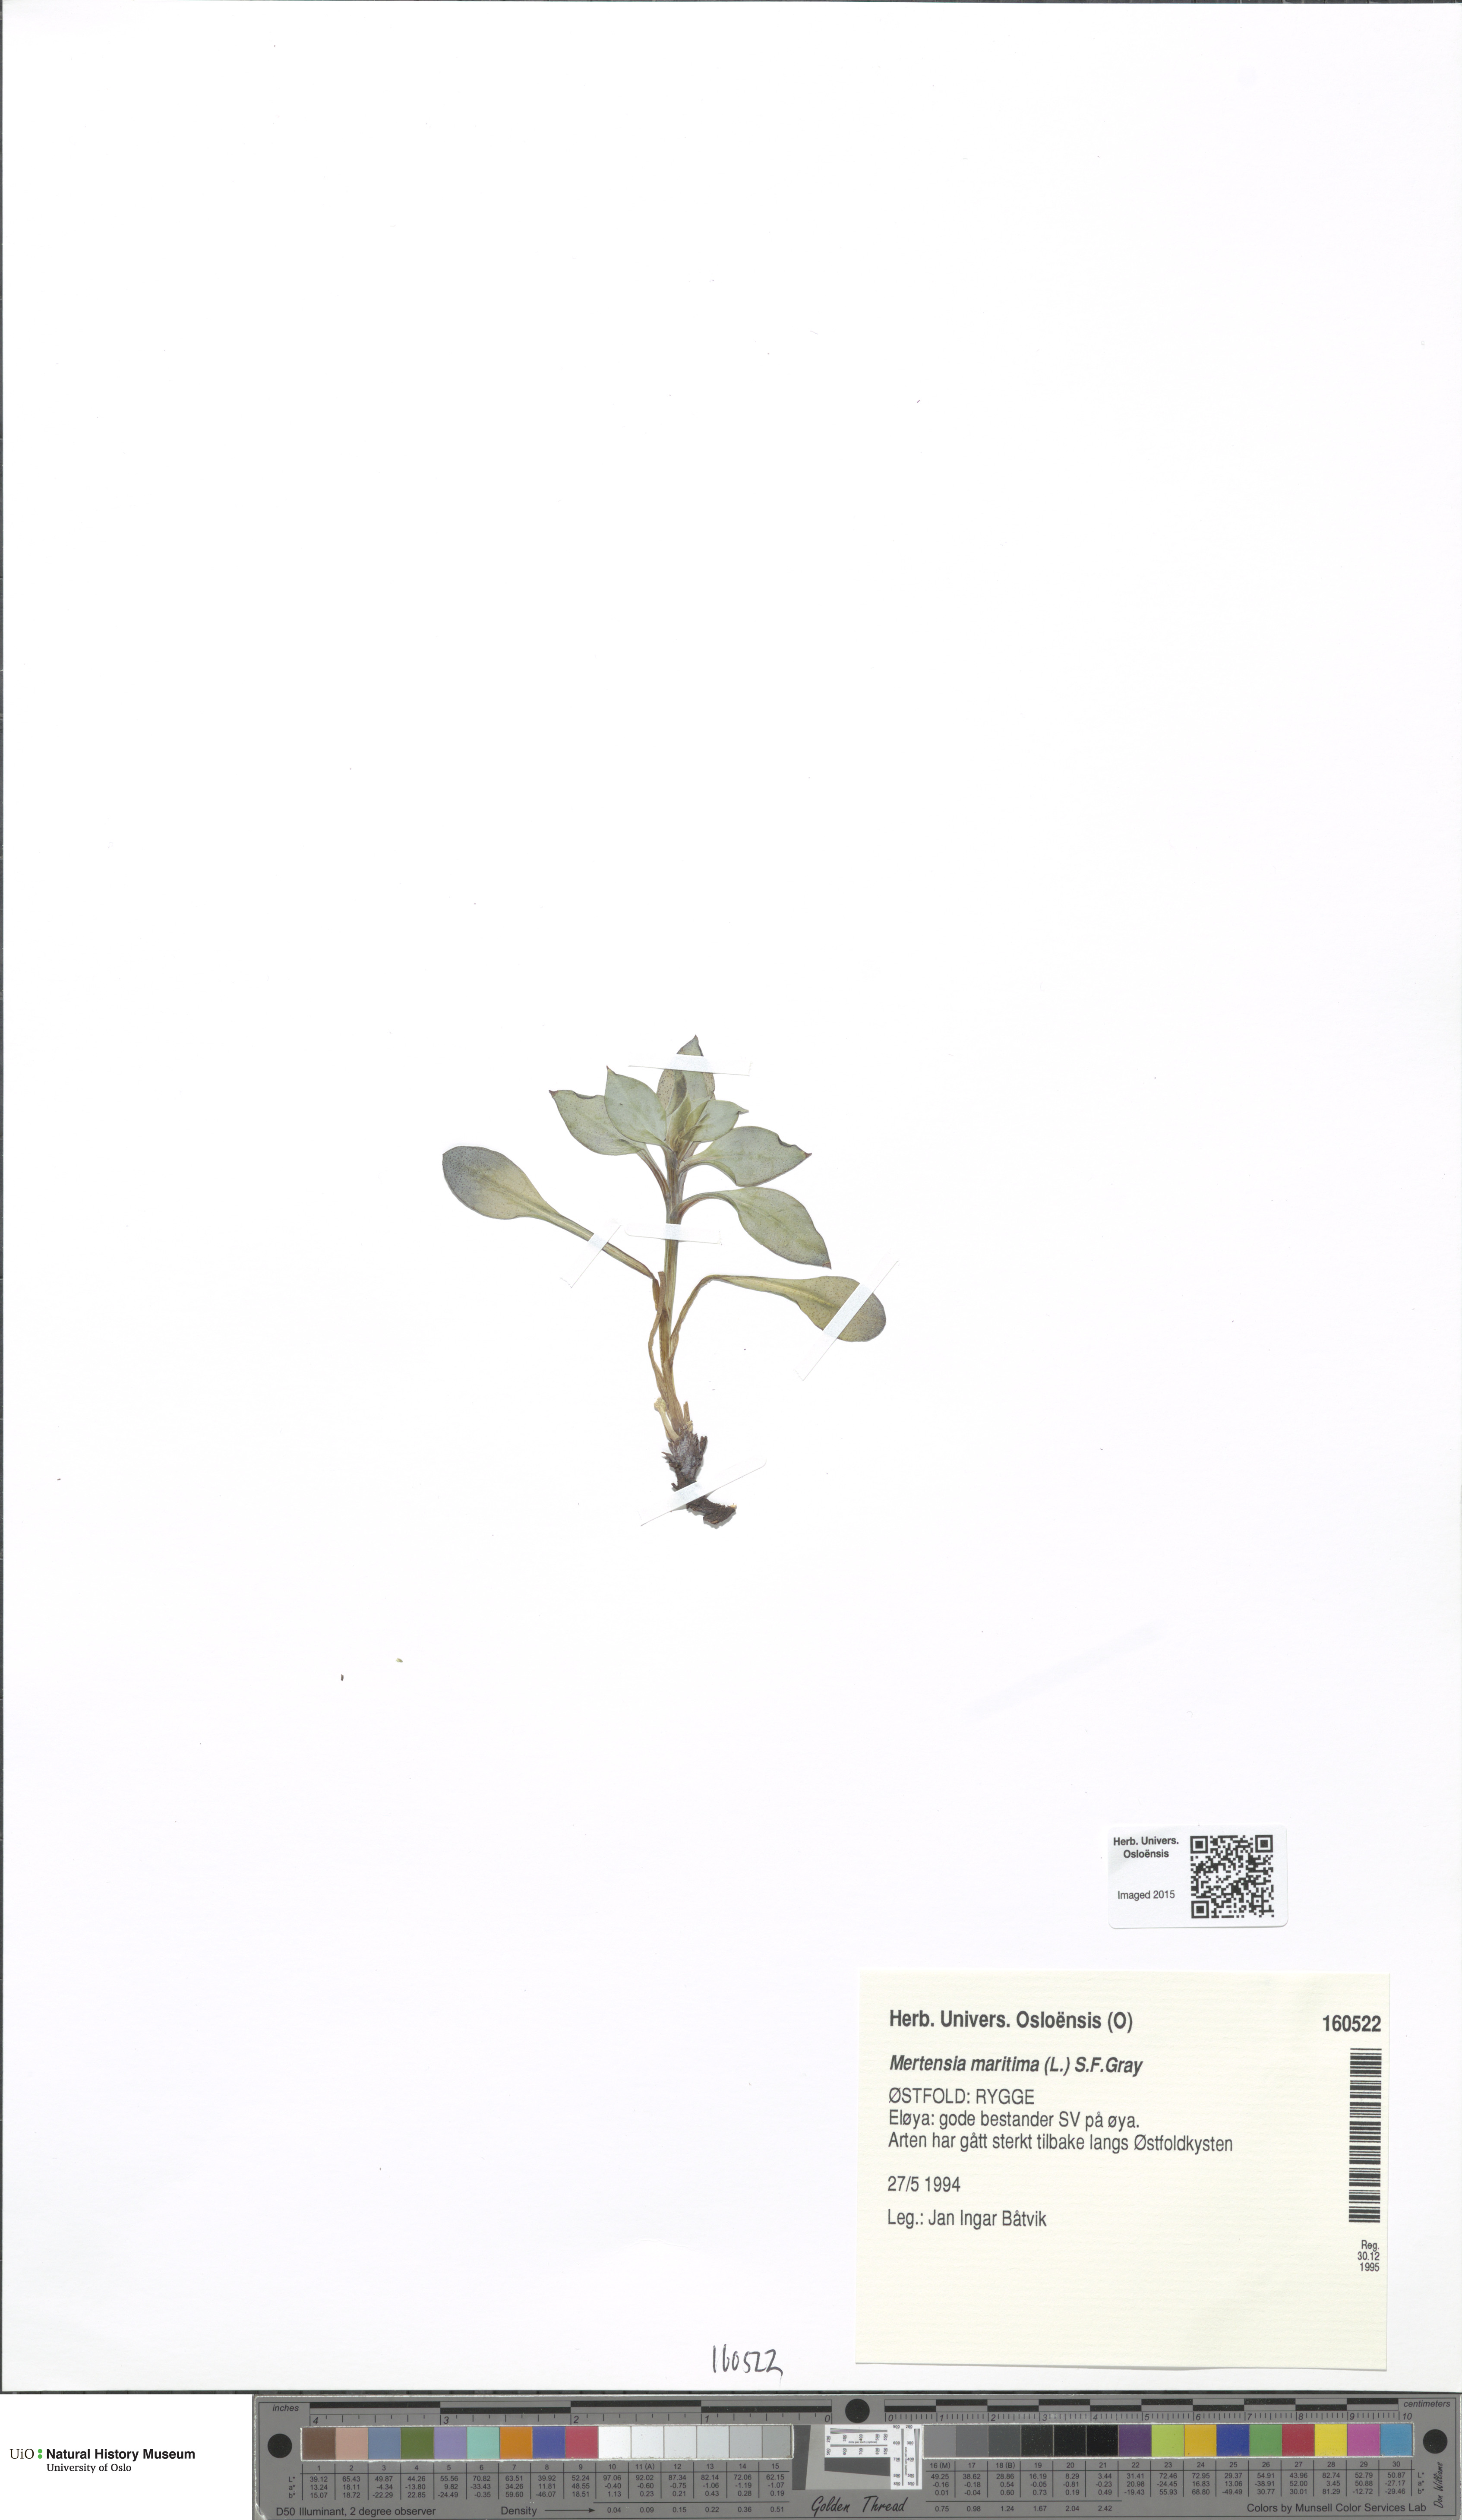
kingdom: Plantae
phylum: Tracheophyta
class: Magnoliopsida
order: Boraginales
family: Boraginaceae
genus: Mertensia
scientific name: Mertensia maritima
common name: Oysterplant
